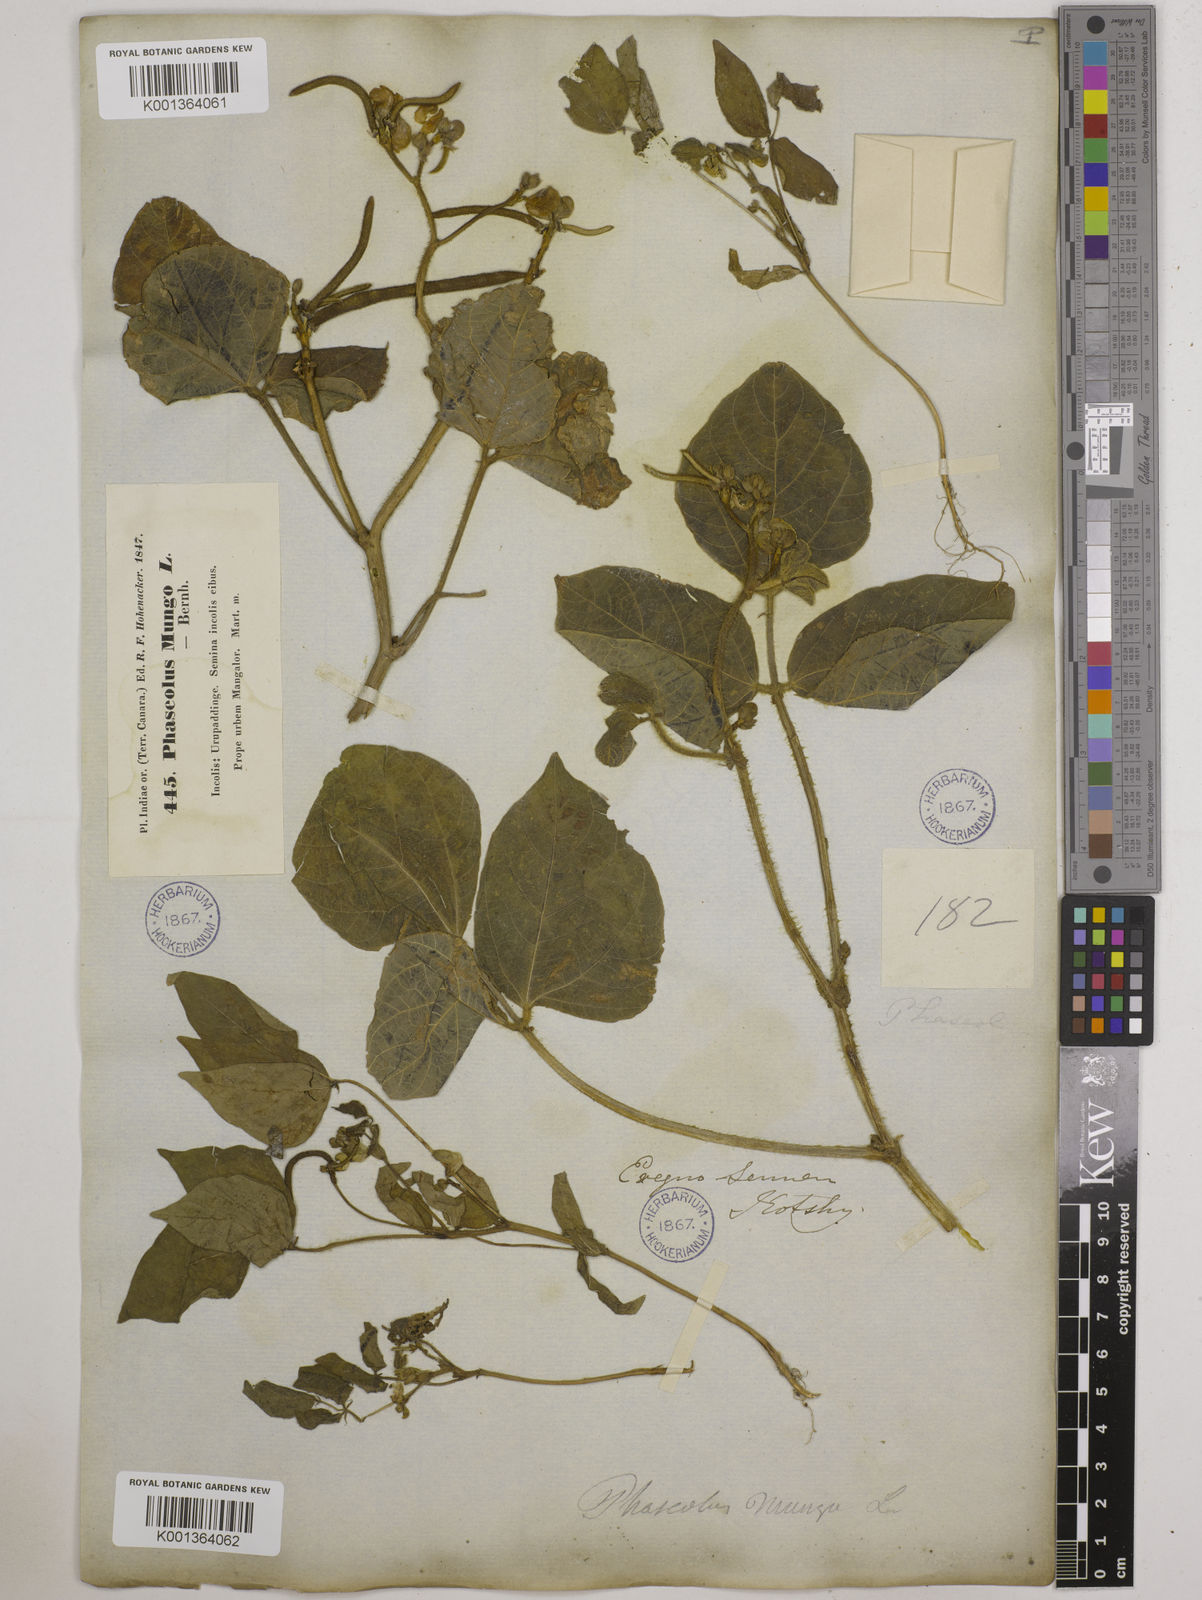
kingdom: Plantae
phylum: Tracheophyta
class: Magnoliopsida
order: Fabales
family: Fabaceae
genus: Vigna
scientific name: Vigna radiata
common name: Mung-bean
